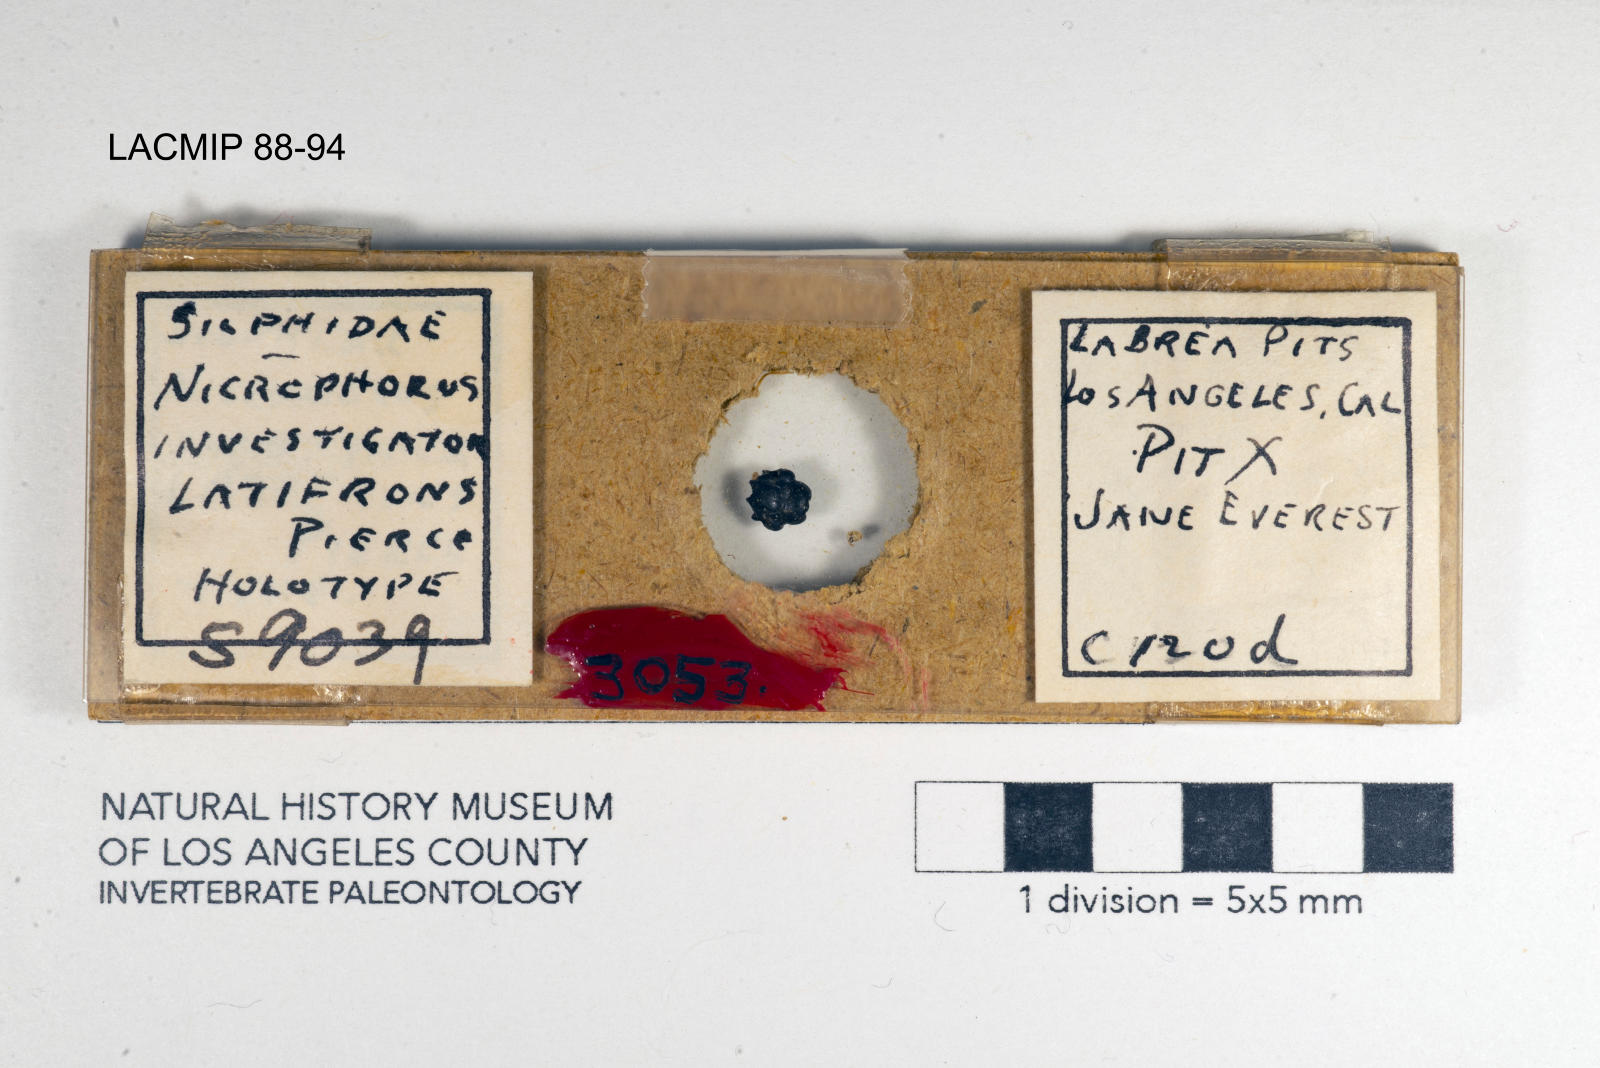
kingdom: Animalia
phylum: Arthropoda
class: Insecta
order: Coleoptera
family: Staphylinidae
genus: Nicrophorus
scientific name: Nicrophorus nigrita
